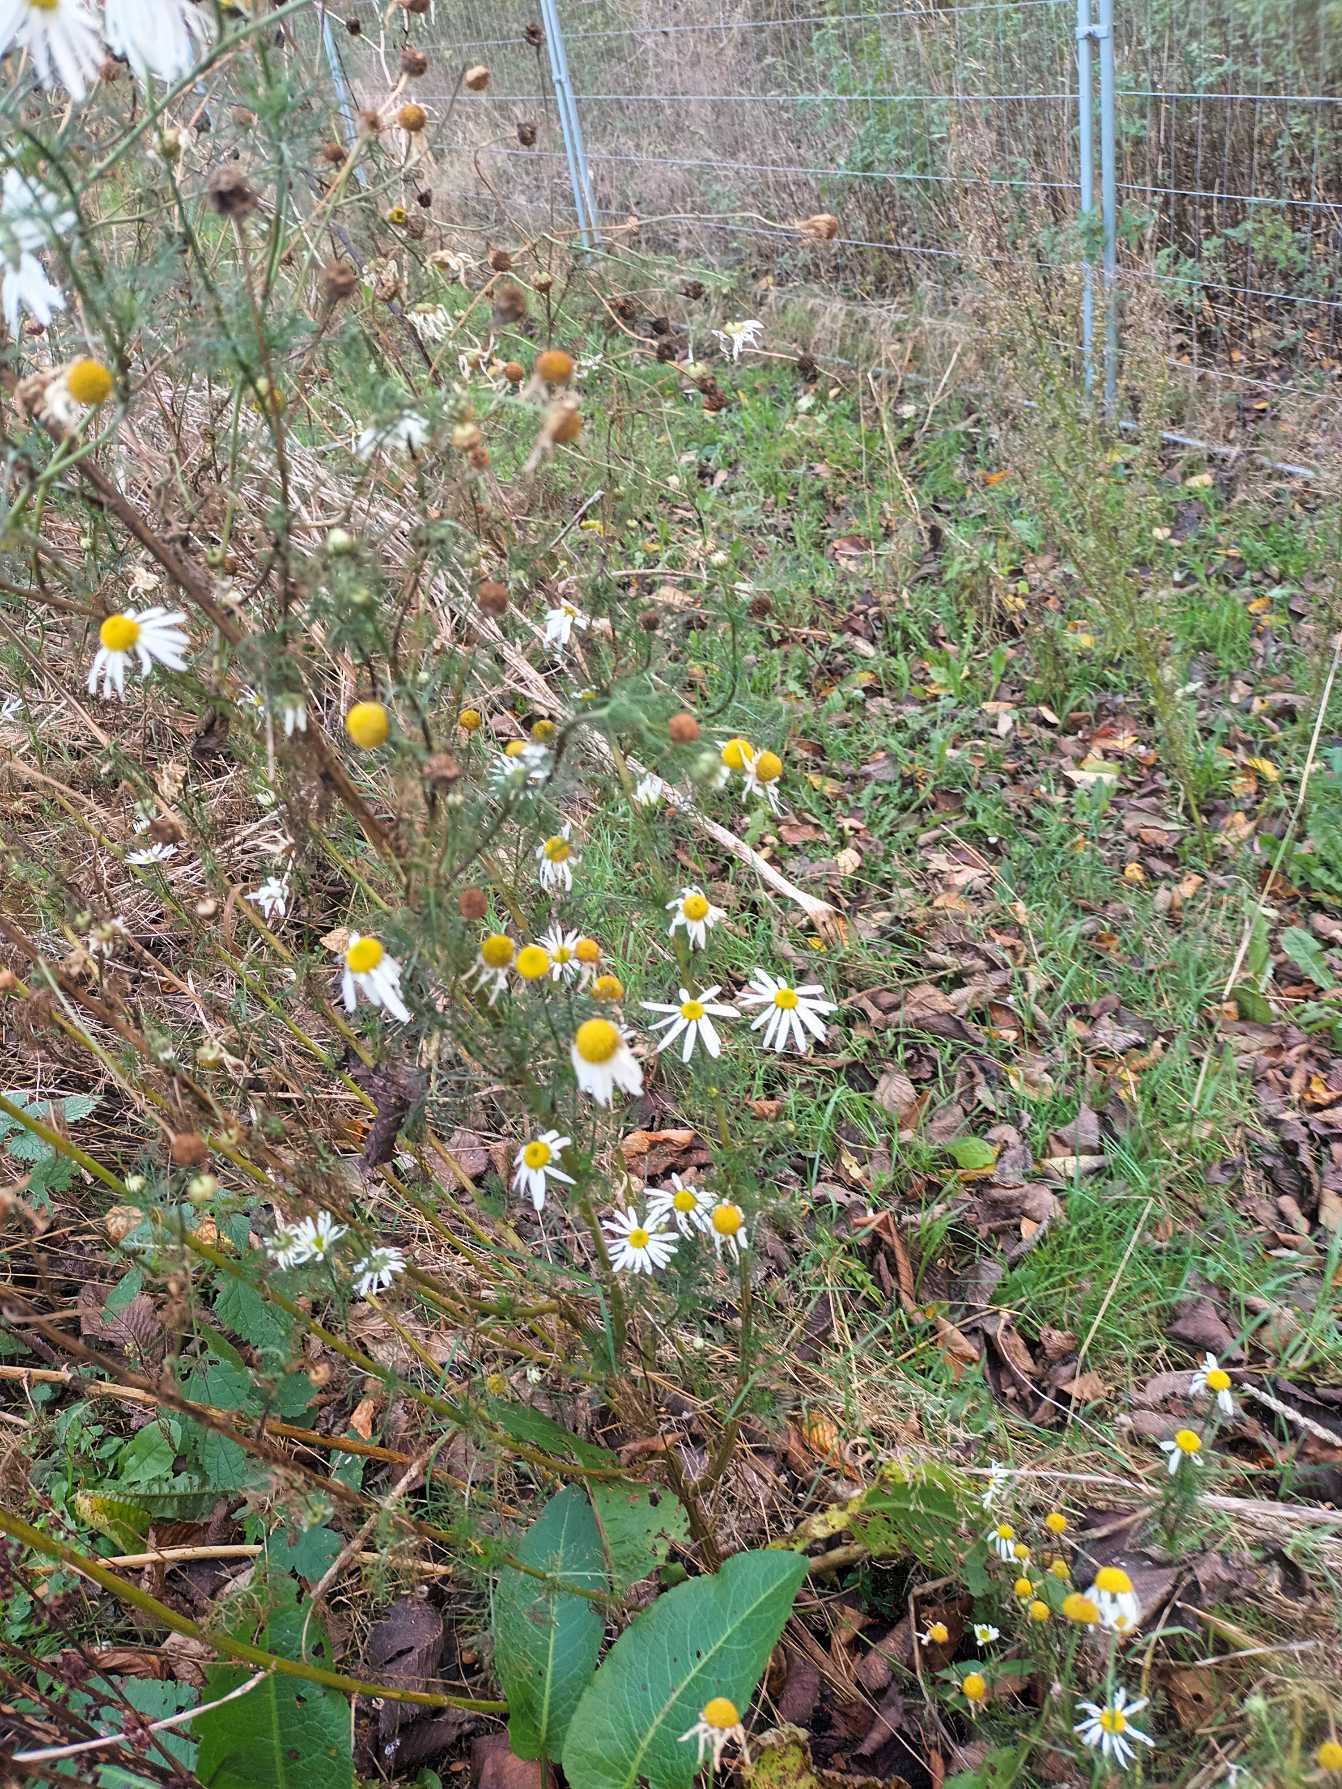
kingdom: Plantae
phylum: Tracheophyta
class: Magnoliopsida
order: Asterales
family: Asteraceae
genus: Tripleurospermum
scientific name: Tripleurospermum inodorum
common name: Lugtløs kamille
